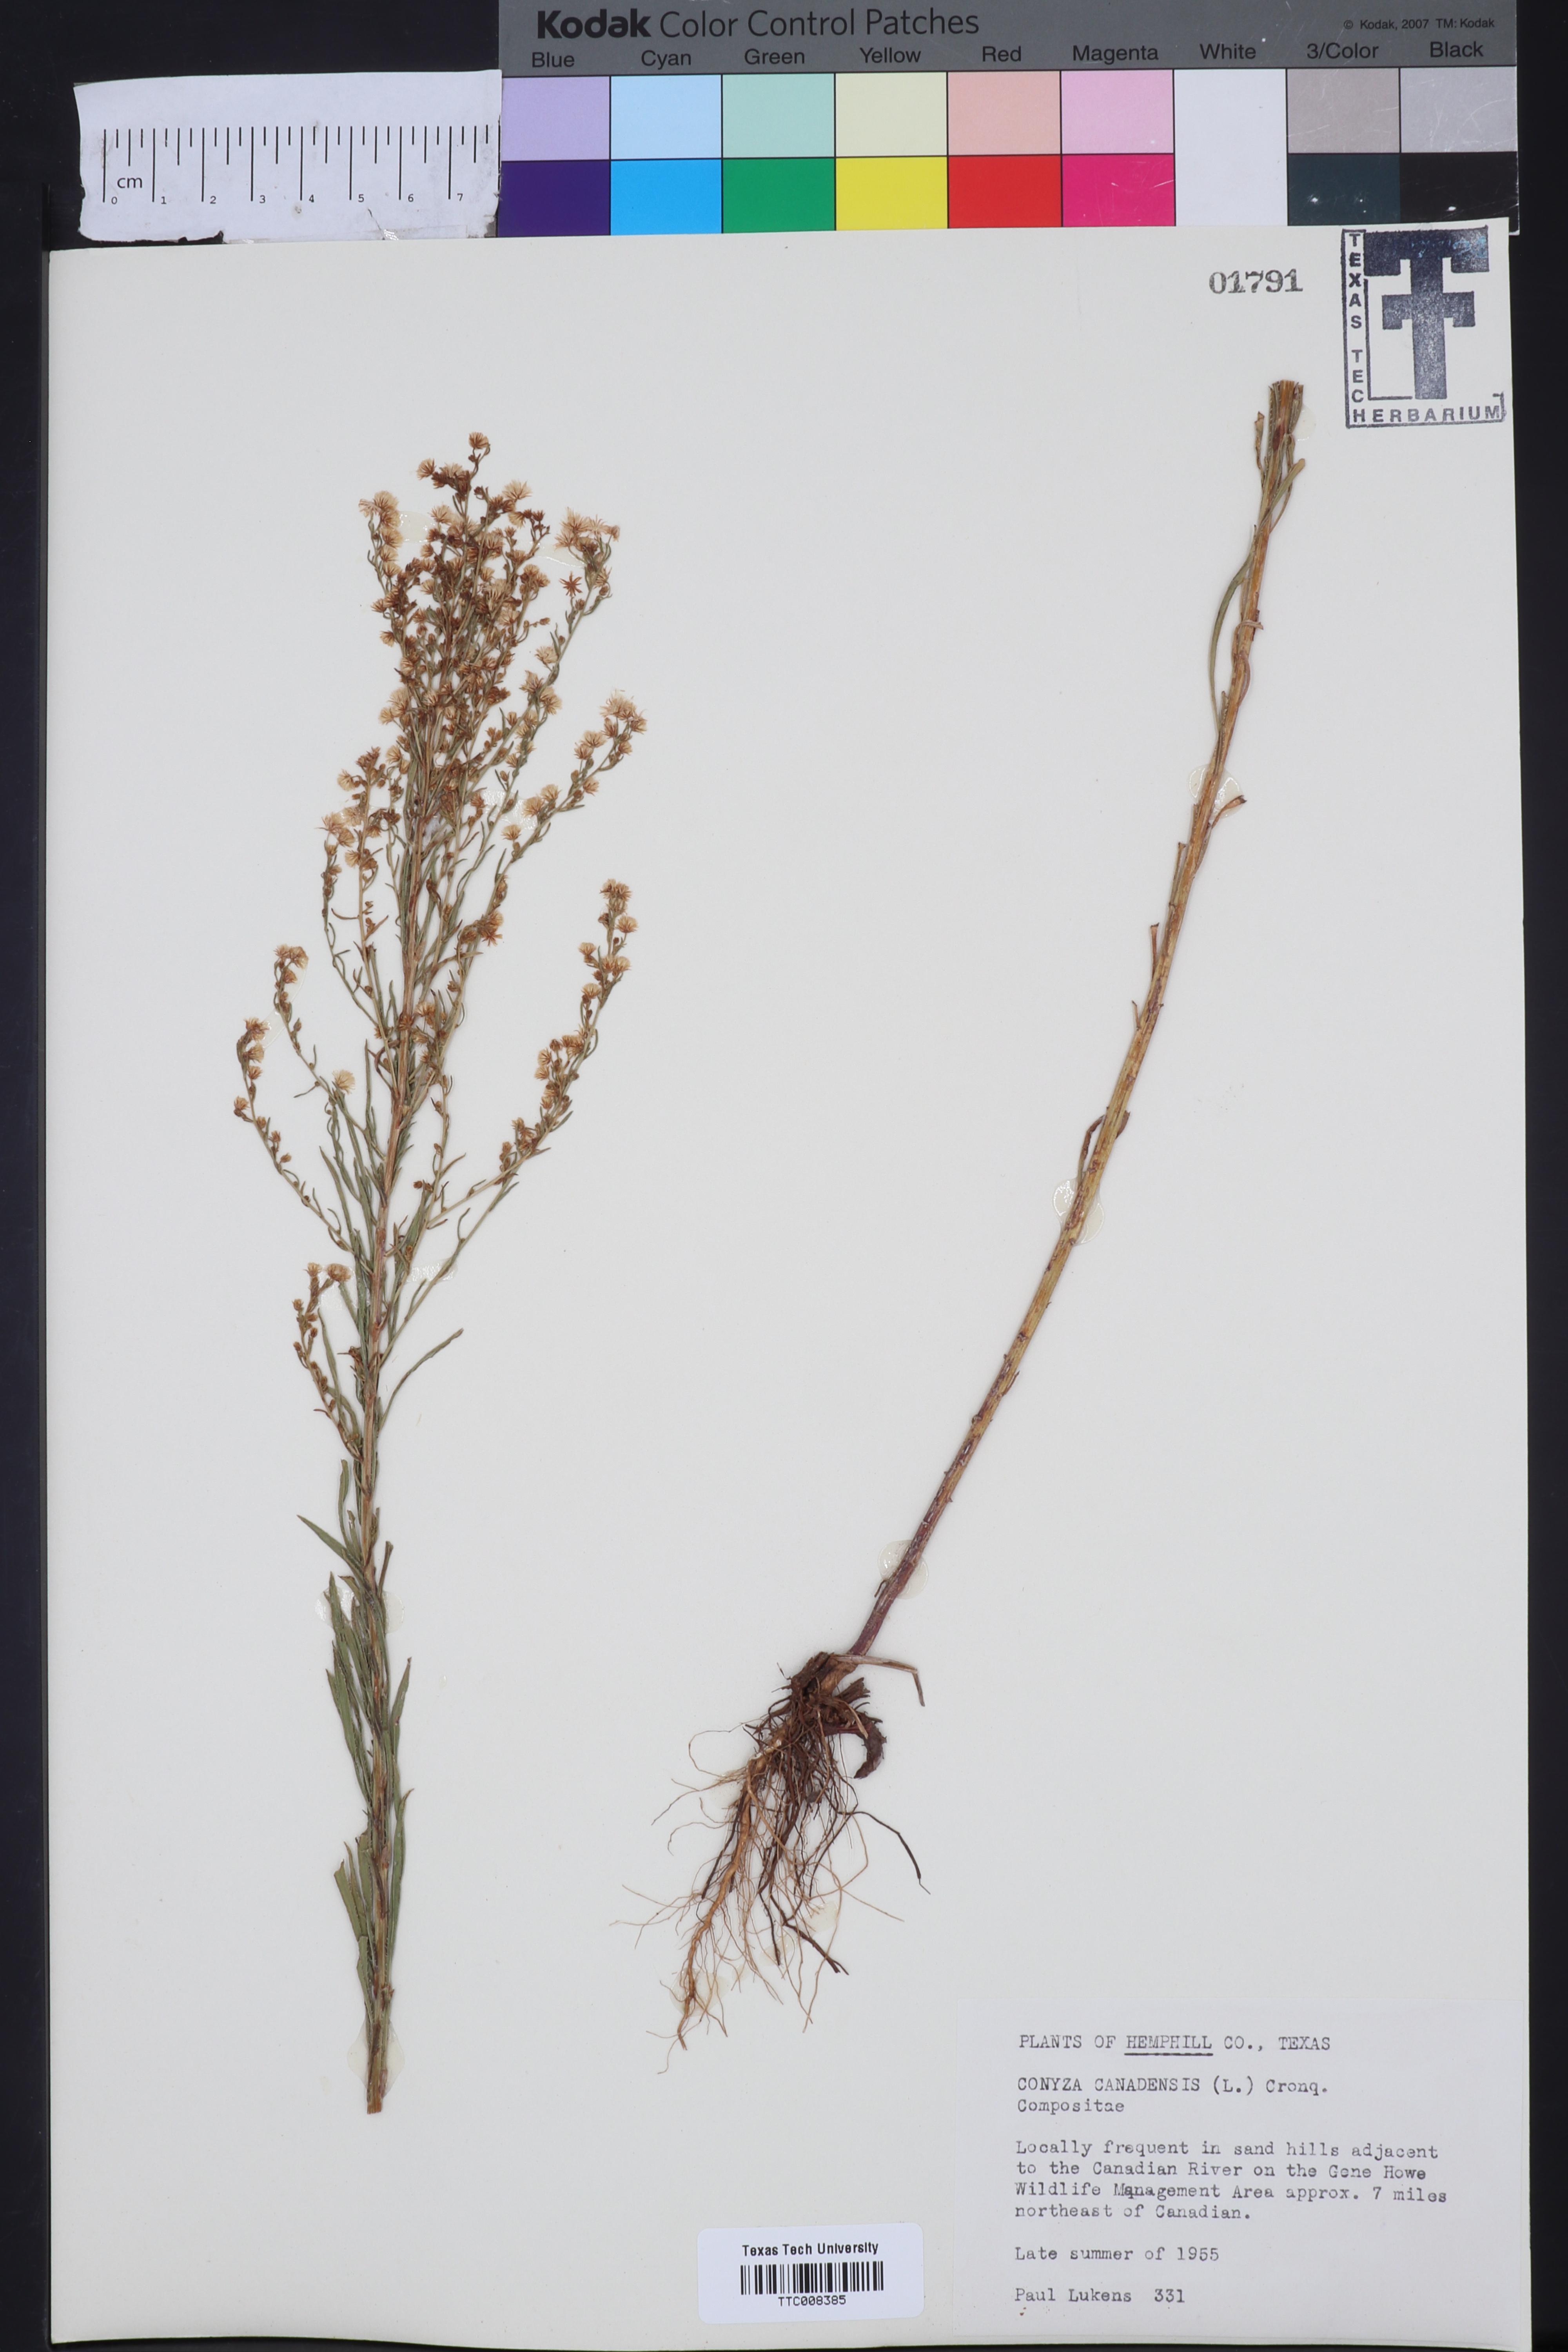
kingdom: Plantae
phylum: Tracheophyta
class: Magnoliopsida
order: Asterales
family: Asteraceae
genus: Erigeron
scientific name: Erigeron canadensis
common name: Canadian fleabane
